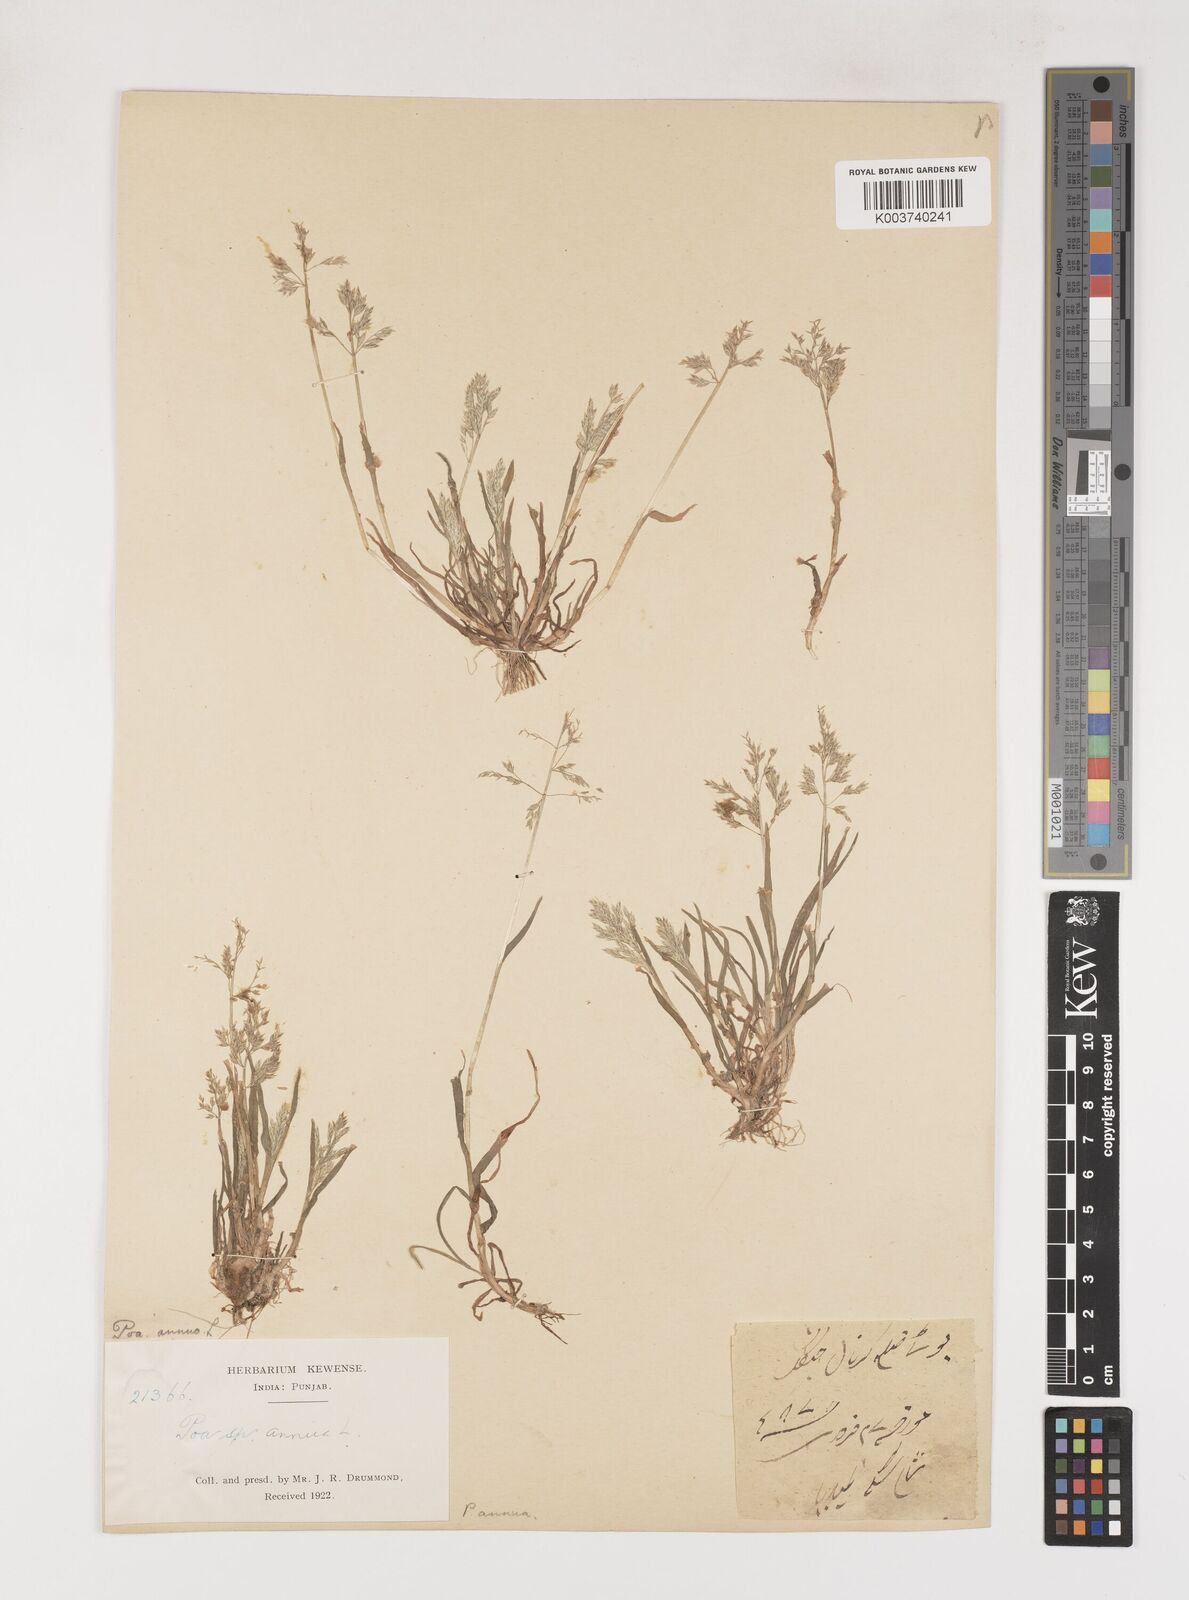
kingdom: Plantae
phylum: Tracheophyta
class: Liliopsida
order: Poales
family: Poaceae
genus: Poa
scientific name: Poa annua
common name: Annual bluegrass
